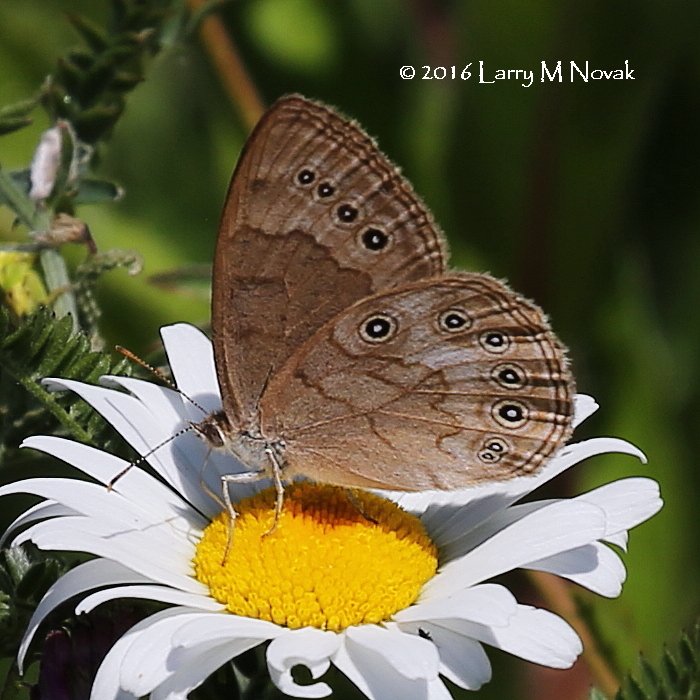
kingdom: Animalia
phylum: Arthropoda
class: Insecta
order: Lepidoptera
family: Nymphalidae
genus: Lethe
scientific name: Lethe eurydice
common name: Eyed Brown
